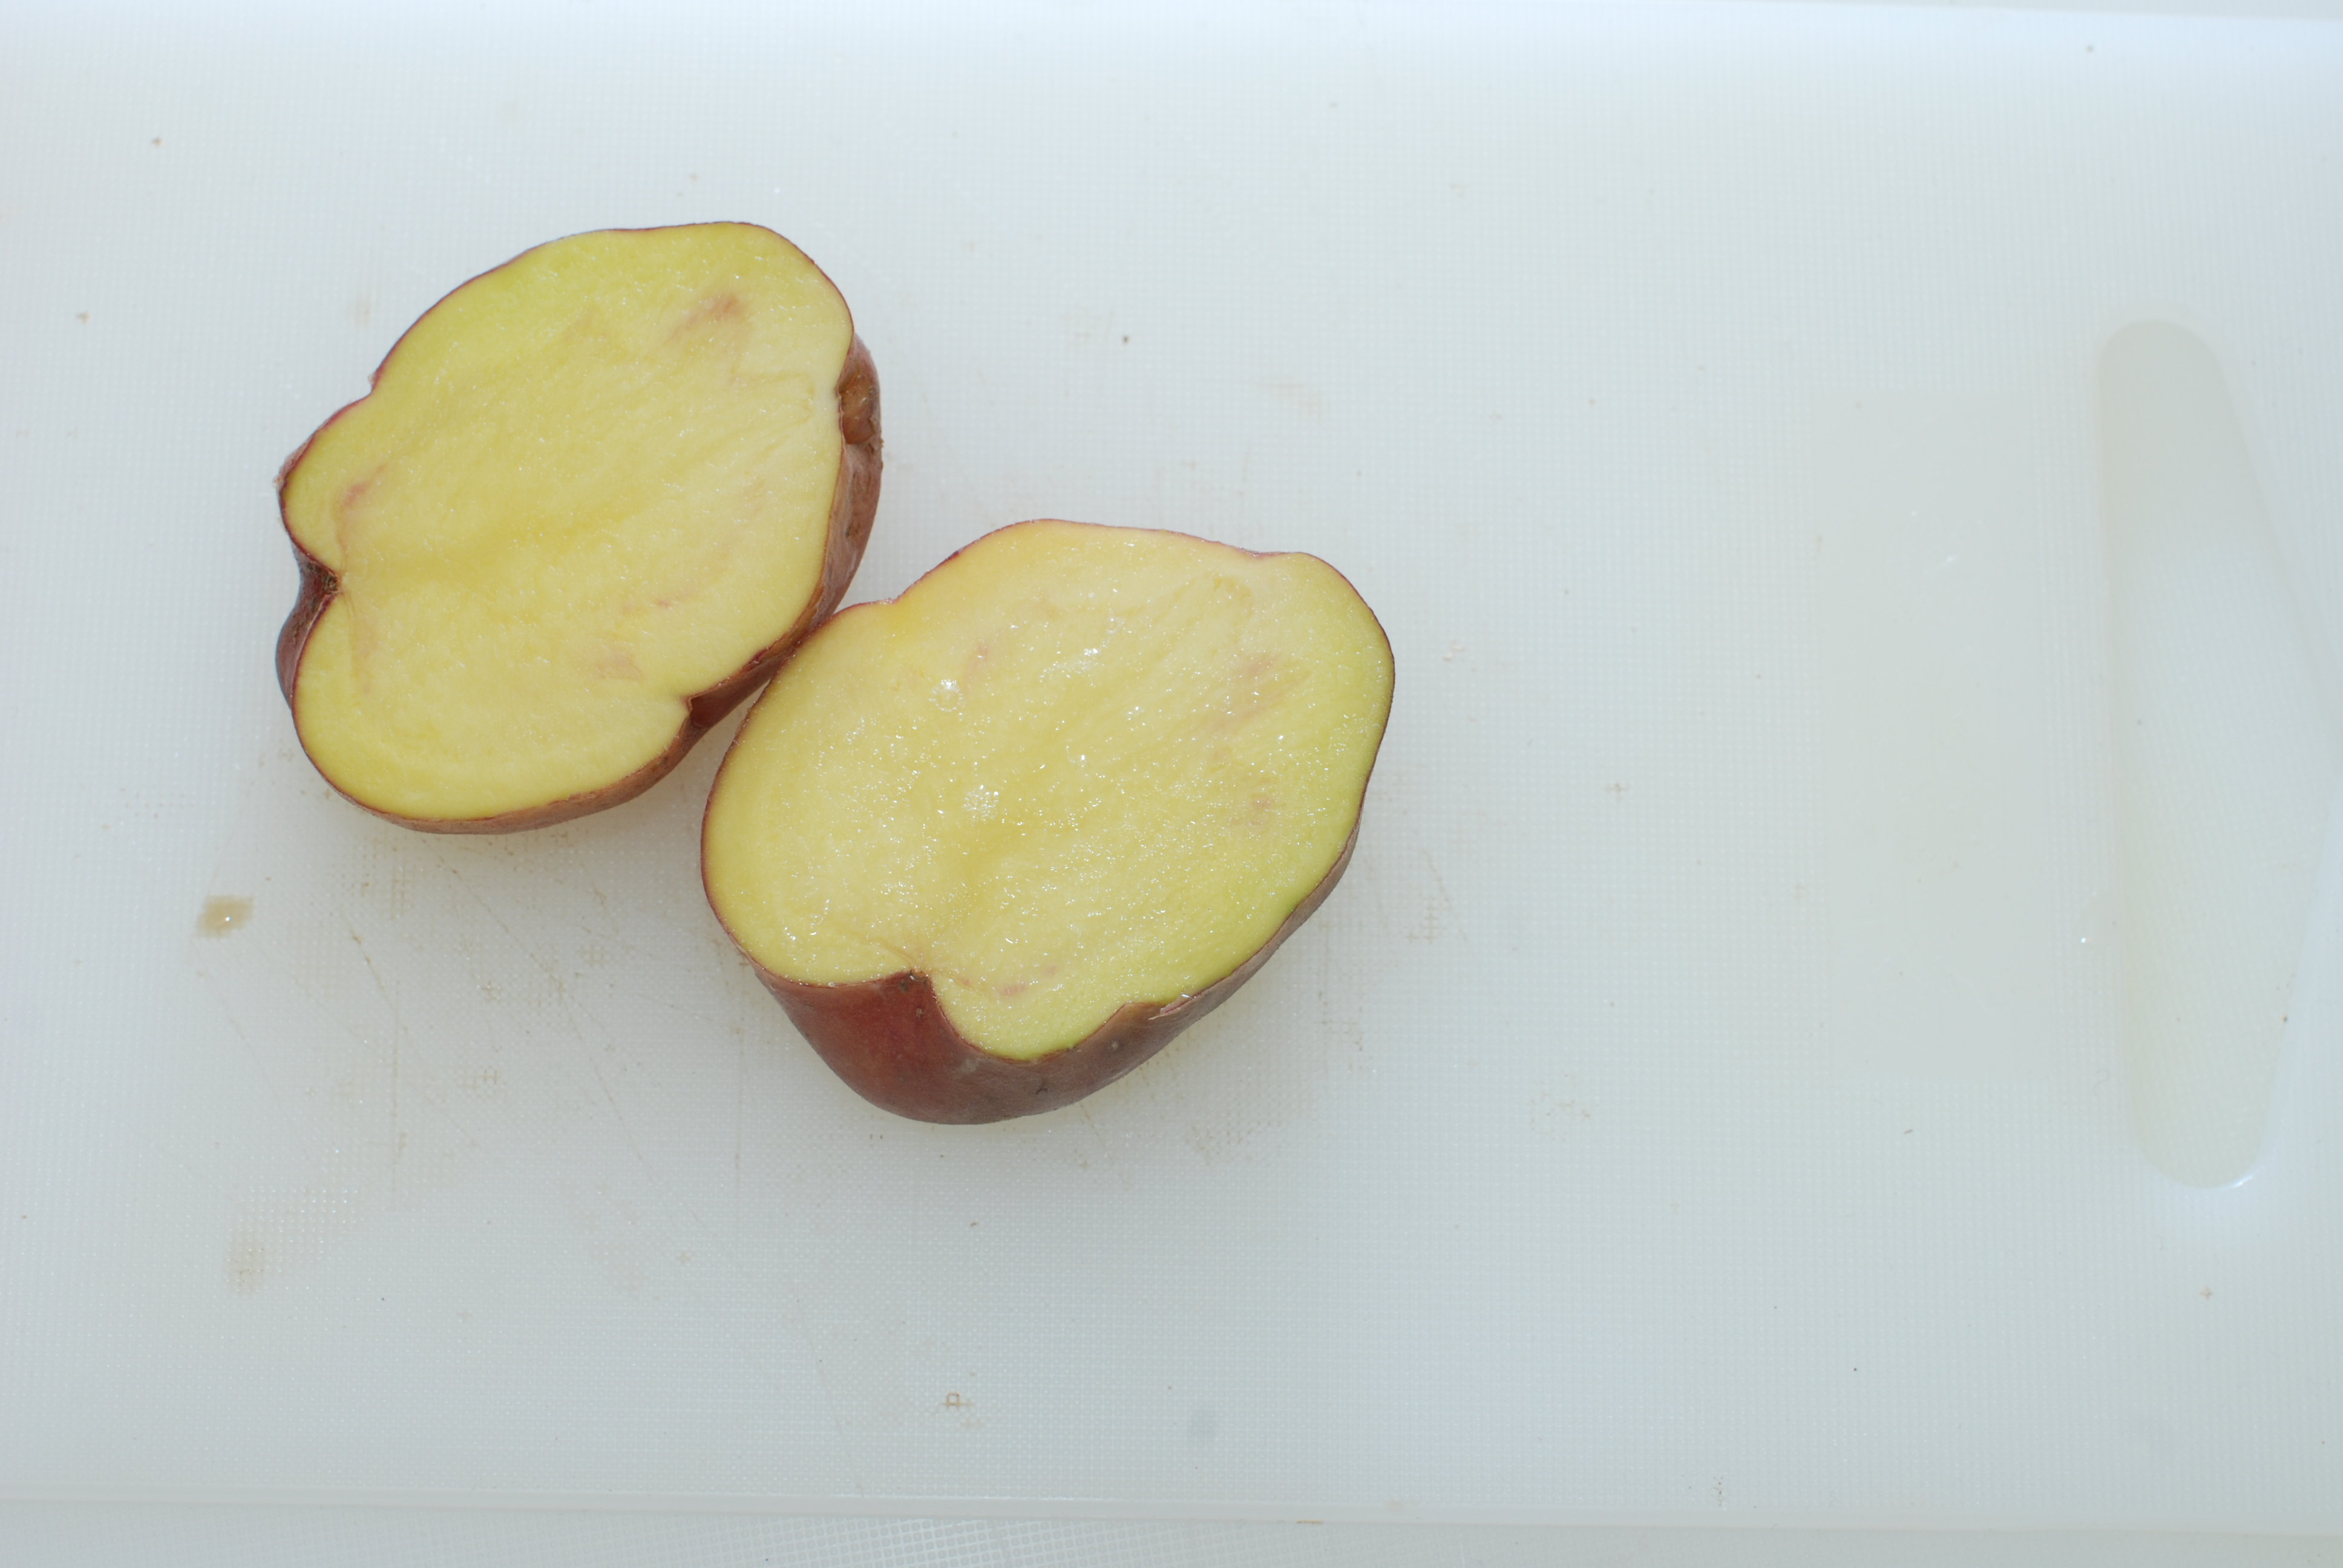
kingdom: Plantae
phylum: Tracheophyta
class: Magnoliopsida
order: Solanales
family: Solanaceae
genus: Solanum
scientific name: Solanum tuberosum
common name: Potato
